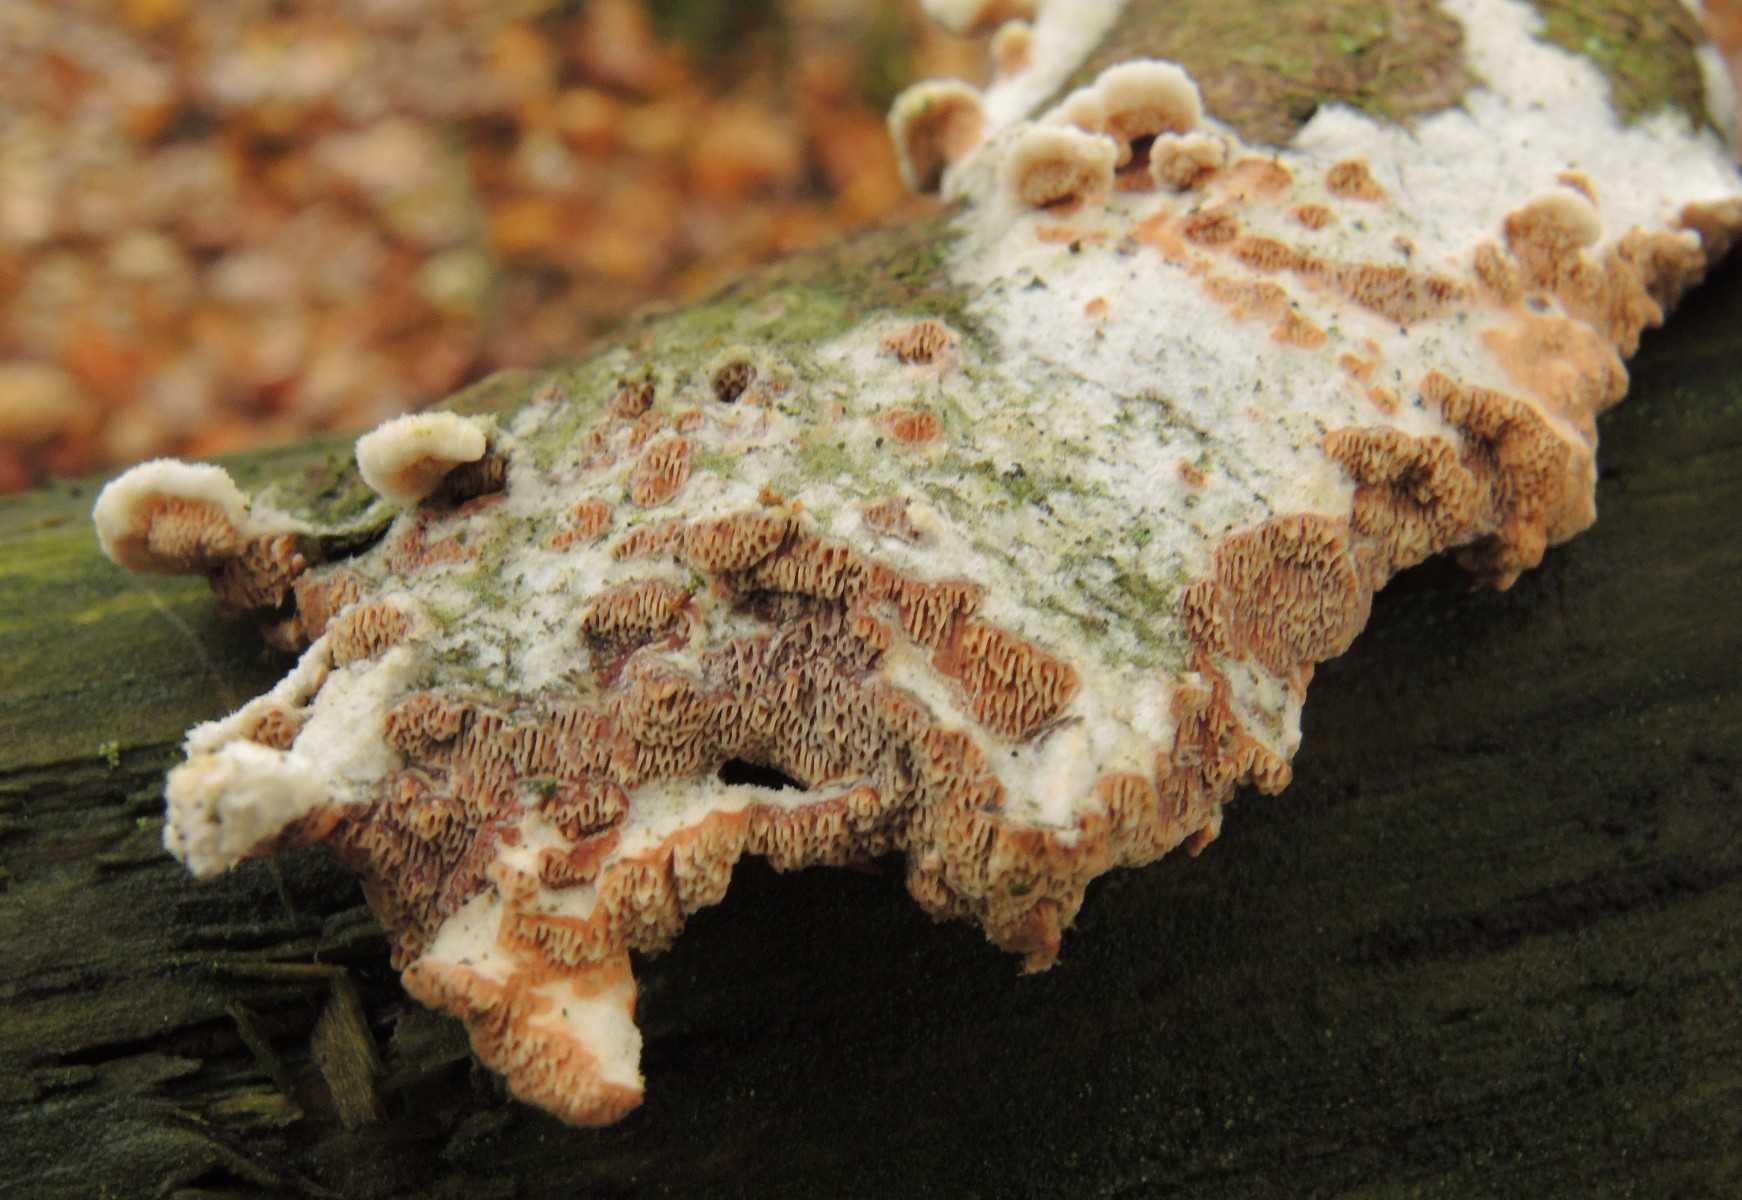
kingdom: Fungi
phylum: Basidiomycota
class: Agaricomycetes
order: Polyporales
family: Irpicaceae
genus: Meruliopsis
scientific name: Meruliopsis taxicola
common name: purpurbrun foldporesvamp
